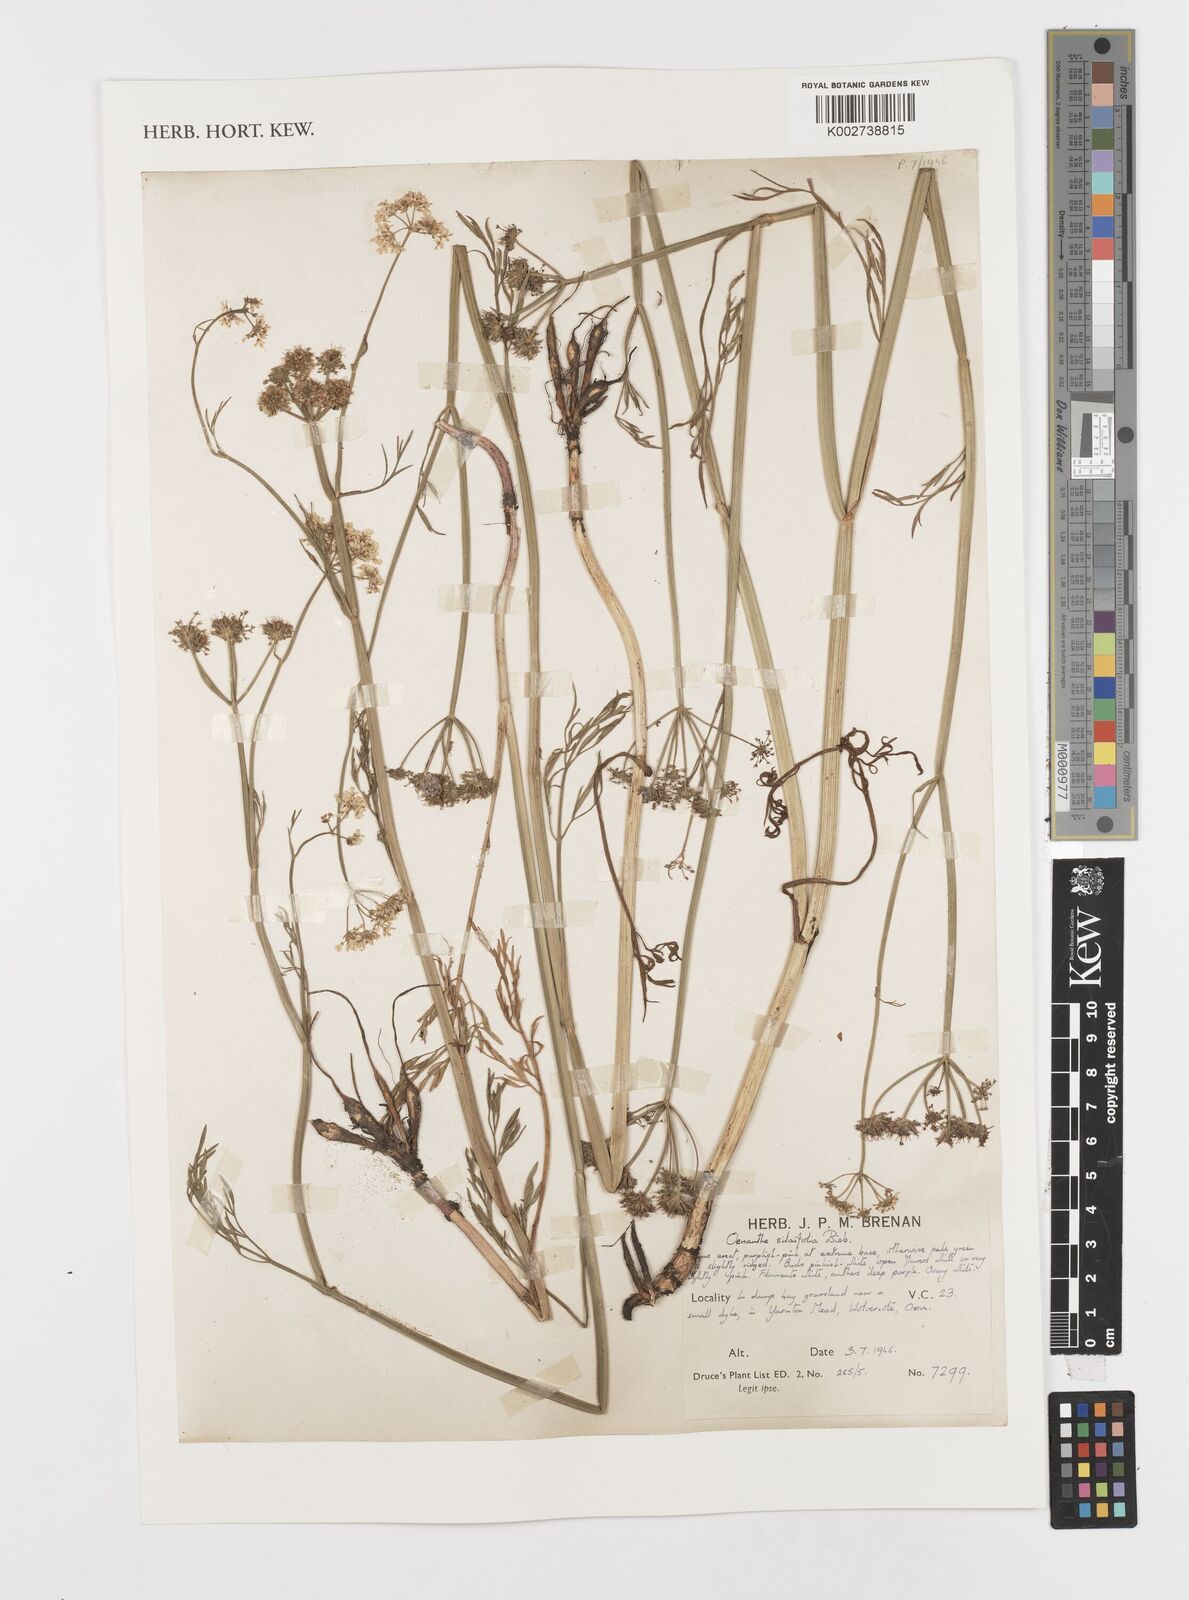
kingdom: Plantae
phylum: Tracheophyta
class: Magnoliopsida
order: Apiales
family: Apiaceae
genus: Oenanthe
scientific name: Oenanthe silaifolia
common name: Narrow-leaved water-dropwort
